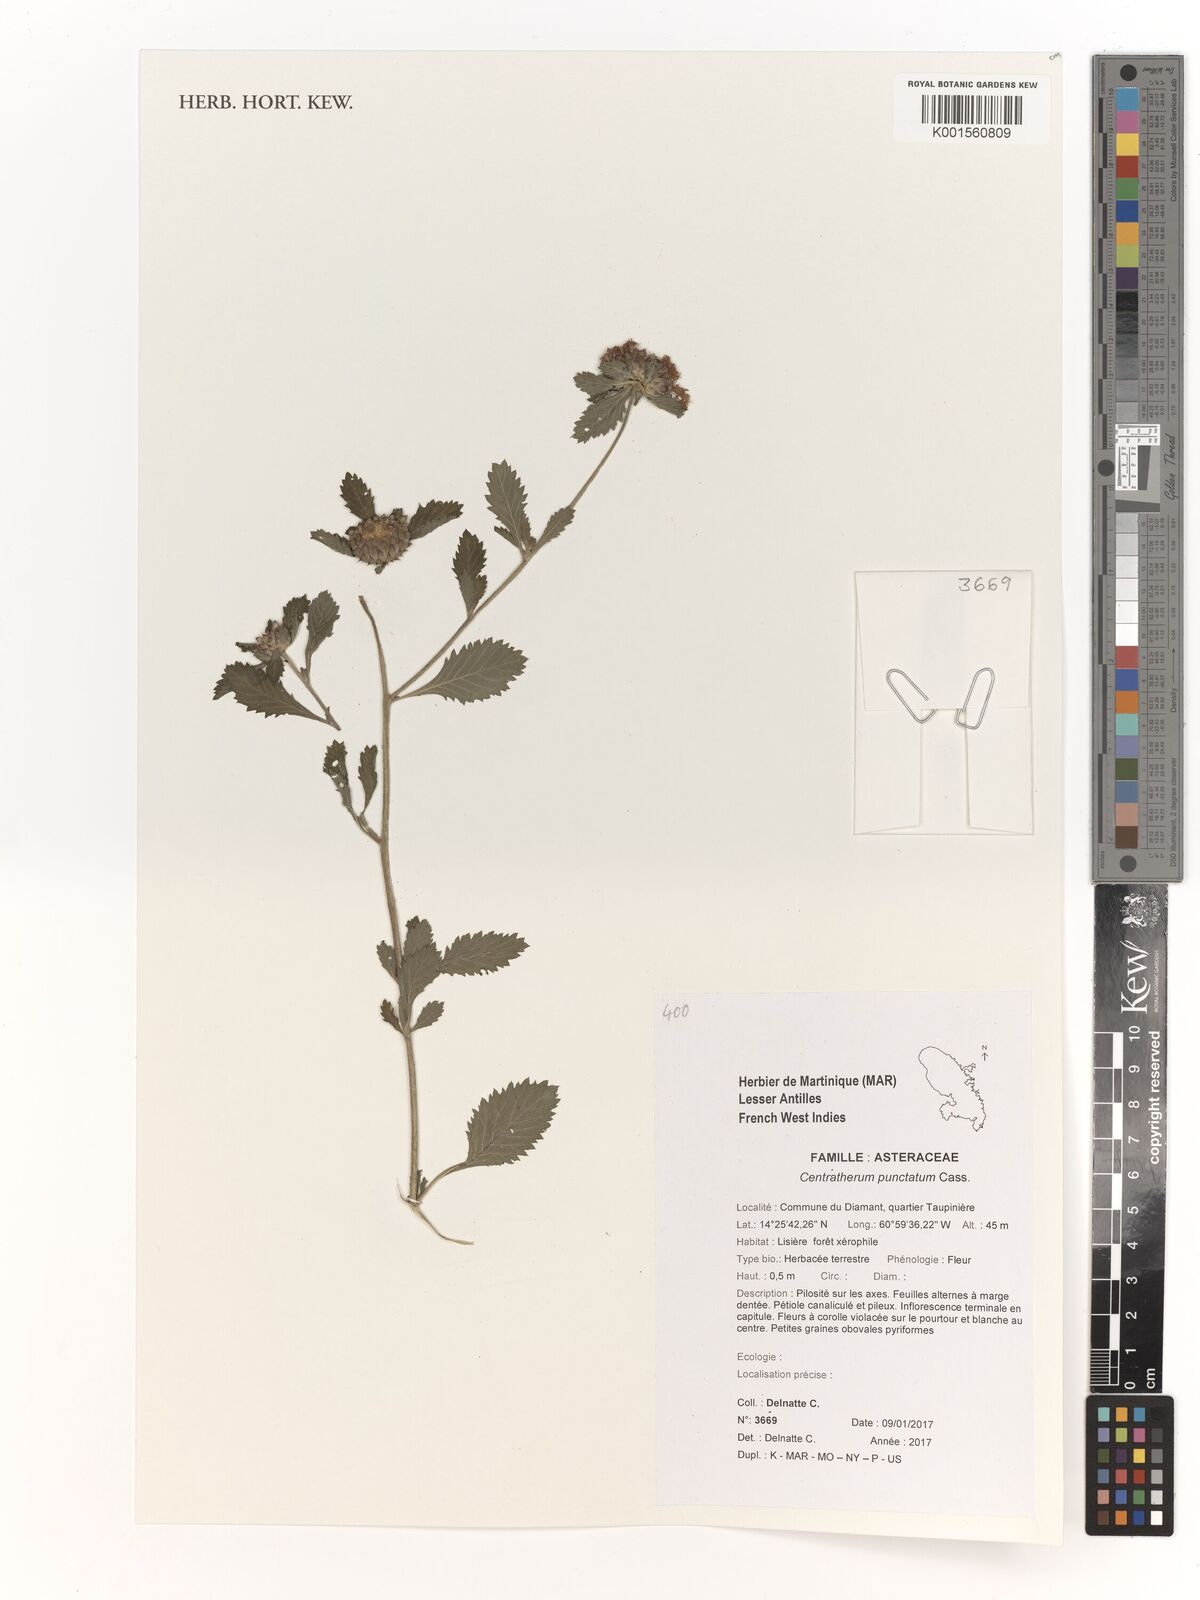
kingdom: Plantae
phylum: Tracheophyta
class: Magnoliopsida
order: Asterales
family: Asteraceae
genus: Centratherum
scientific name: Centratherum punctatum
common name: Larkdaisy
